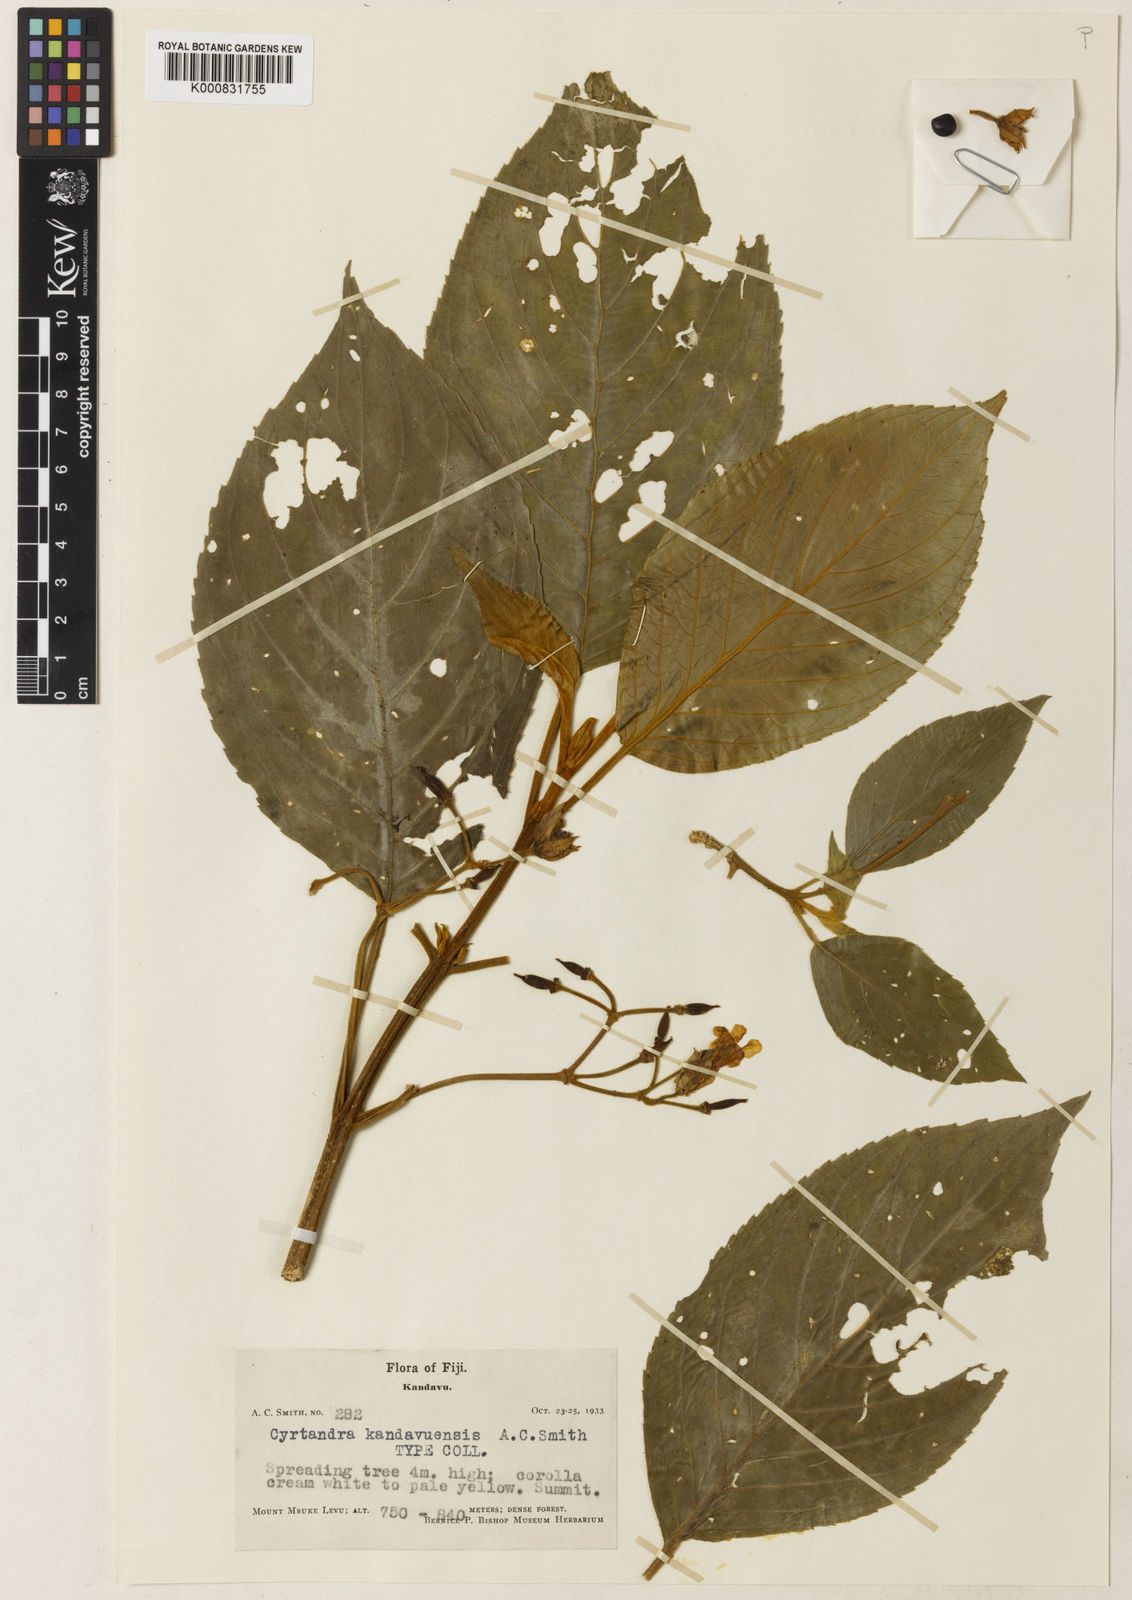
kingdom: Plantae
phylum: Tracheophyta
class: Magnoliopsida
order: Lamiales
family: Gesneriaceae
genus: Cyrtandra
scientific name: Cyrtandra kandavuensis
